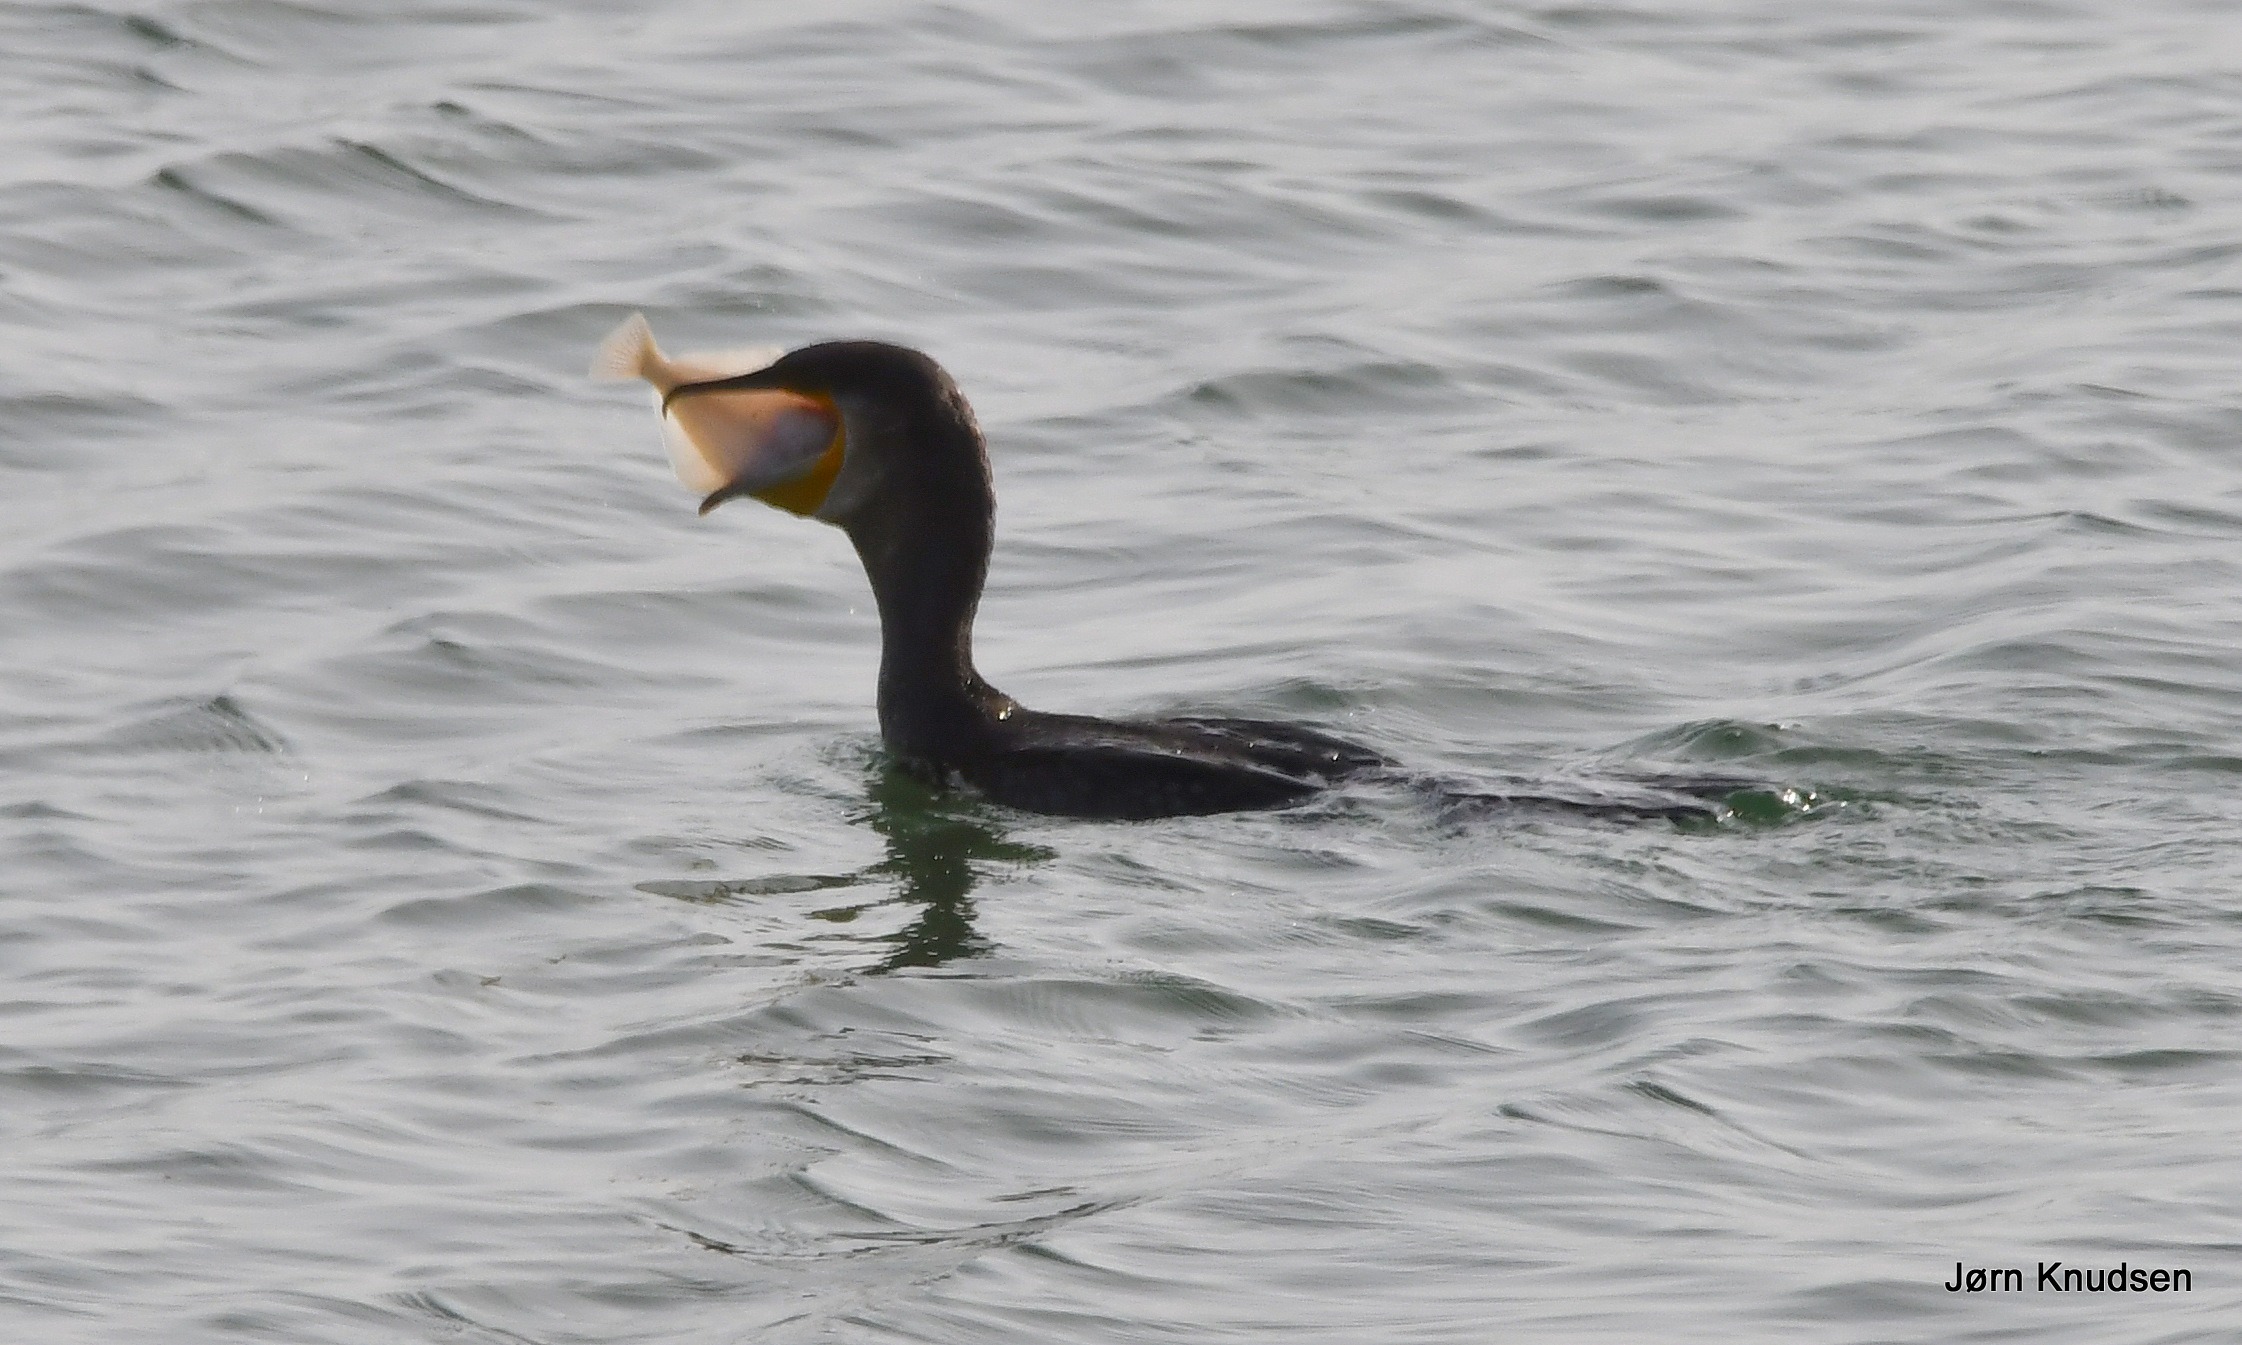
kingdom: Animalia
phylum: Chordata
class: Aves
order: Suliformes
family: Phalacrocoracidae
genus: Phalacrocorax
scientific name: Phalacrocorax carbo
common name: Skarv
